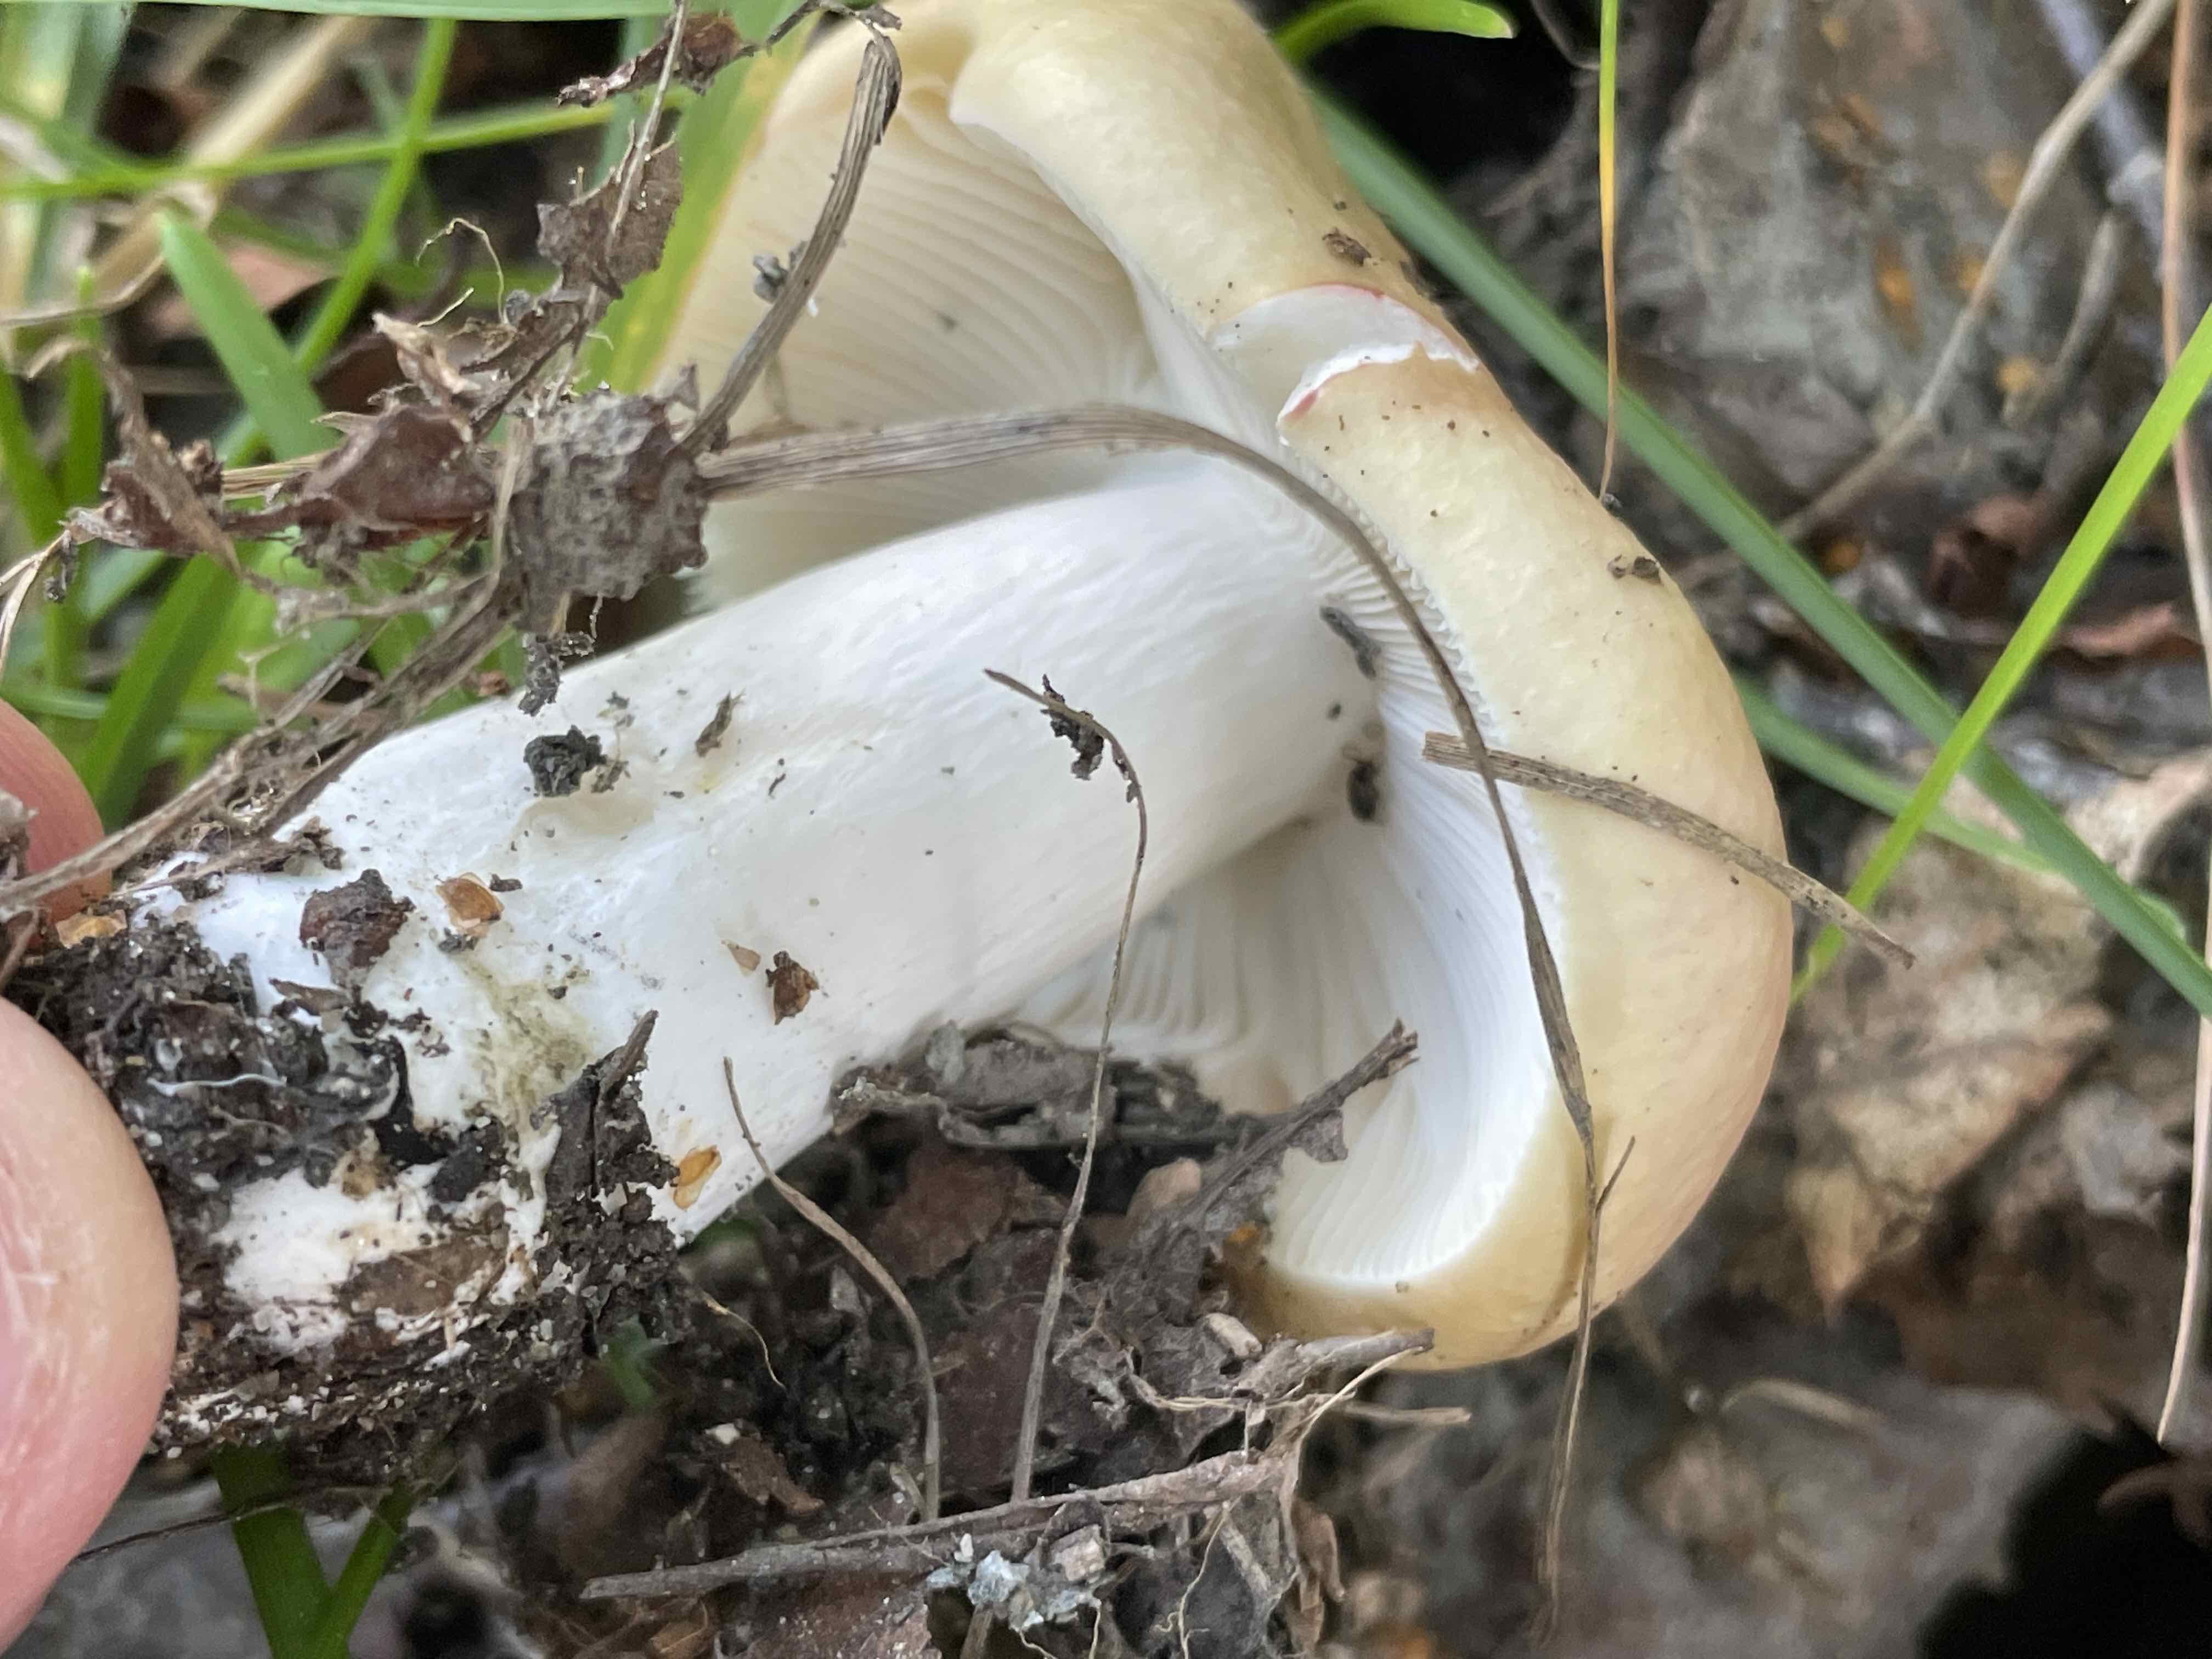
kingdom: Fungi
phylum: Basidiomycota
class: Agaricomycetes
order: Russulales
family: Russulaceae
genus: Russula
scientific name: Russula
